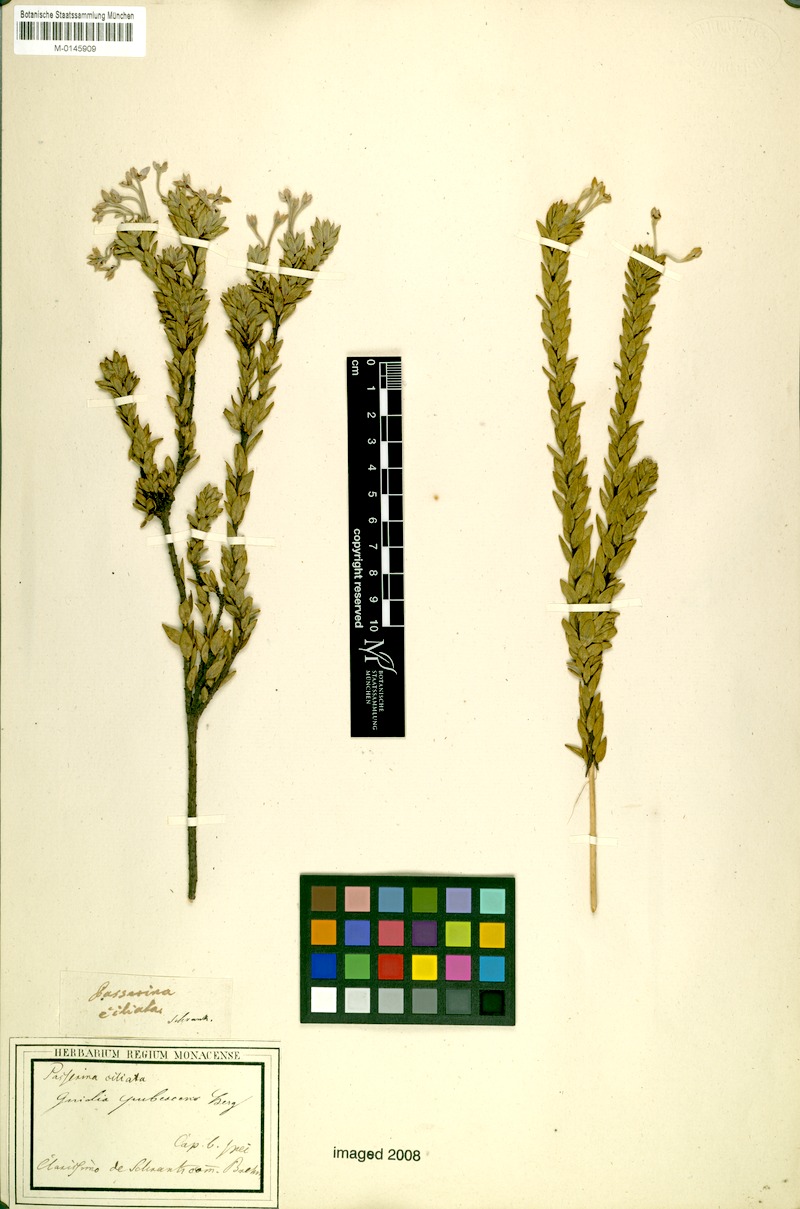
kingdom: Plantae
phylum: Tracheophyta
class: Magnoliopsida
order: Malvales
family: Thymelaeaceae
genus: Gnidia
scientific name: Gnidia tomentosa
